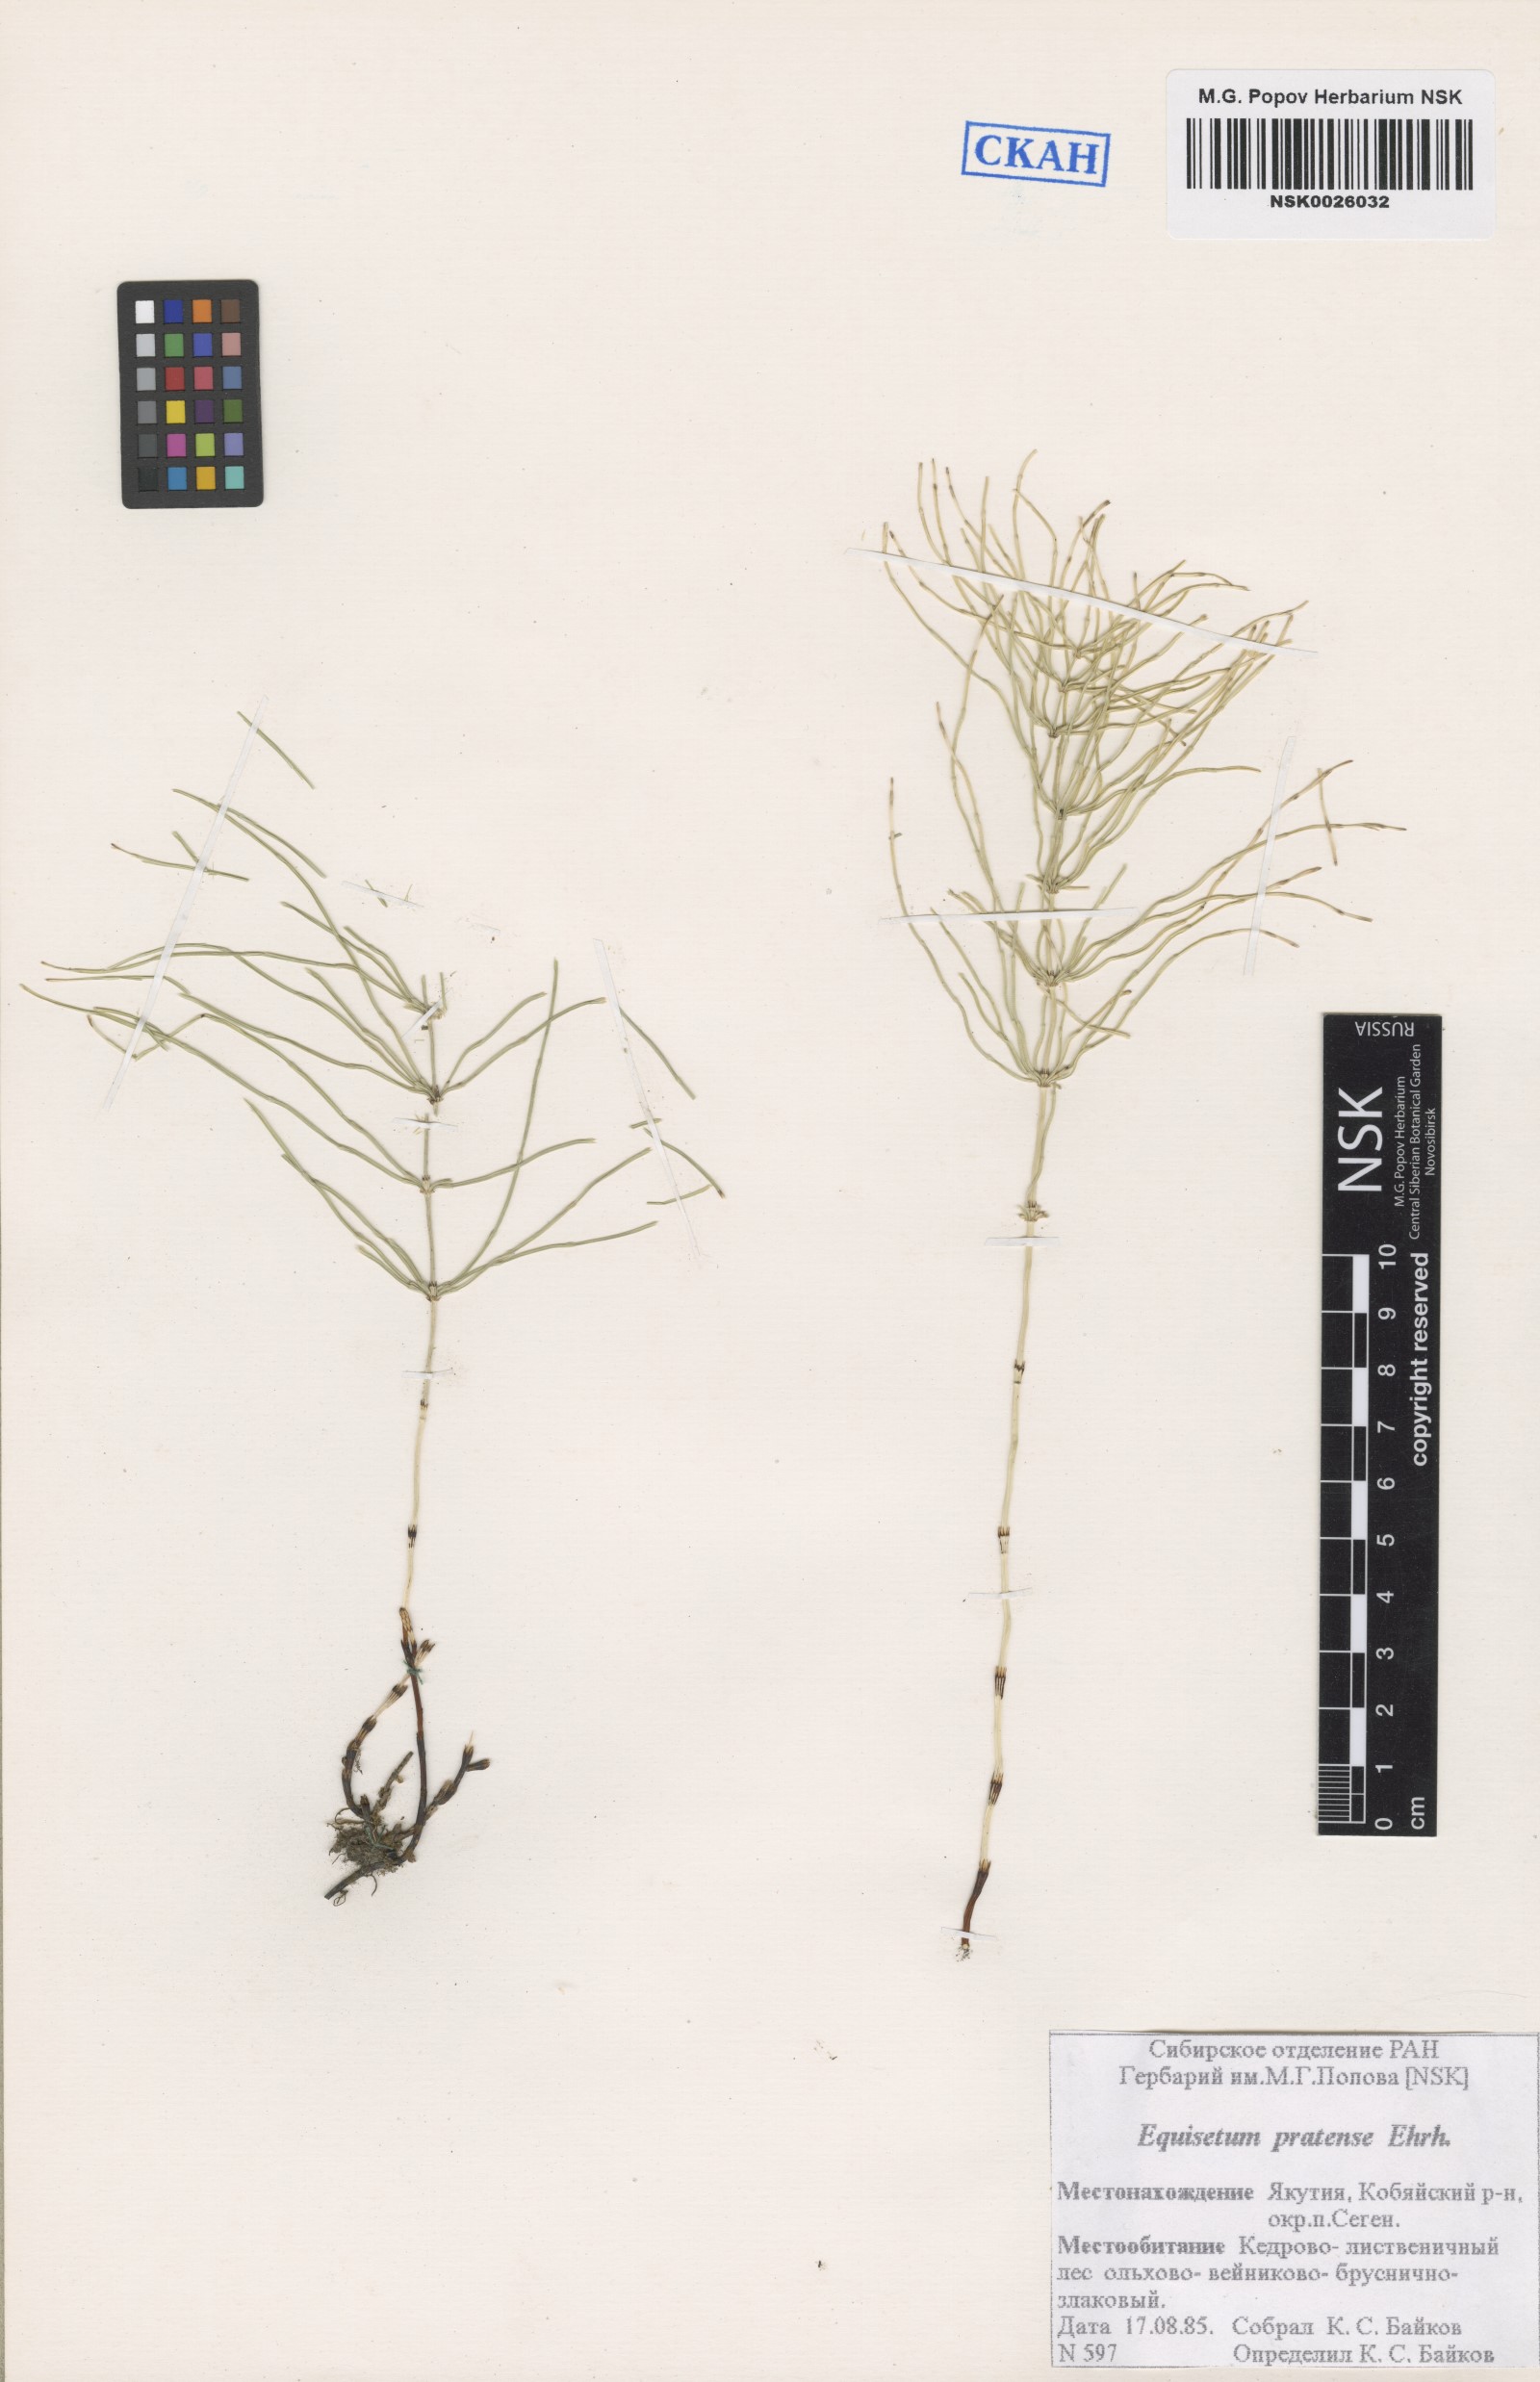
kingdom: Plantae
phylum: Tracheophyta
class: Polypodiopsida
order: Equisetales
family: Equisetaceae
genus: Equisetum
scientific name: Equisetum pratense
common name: Meadow horsetail
